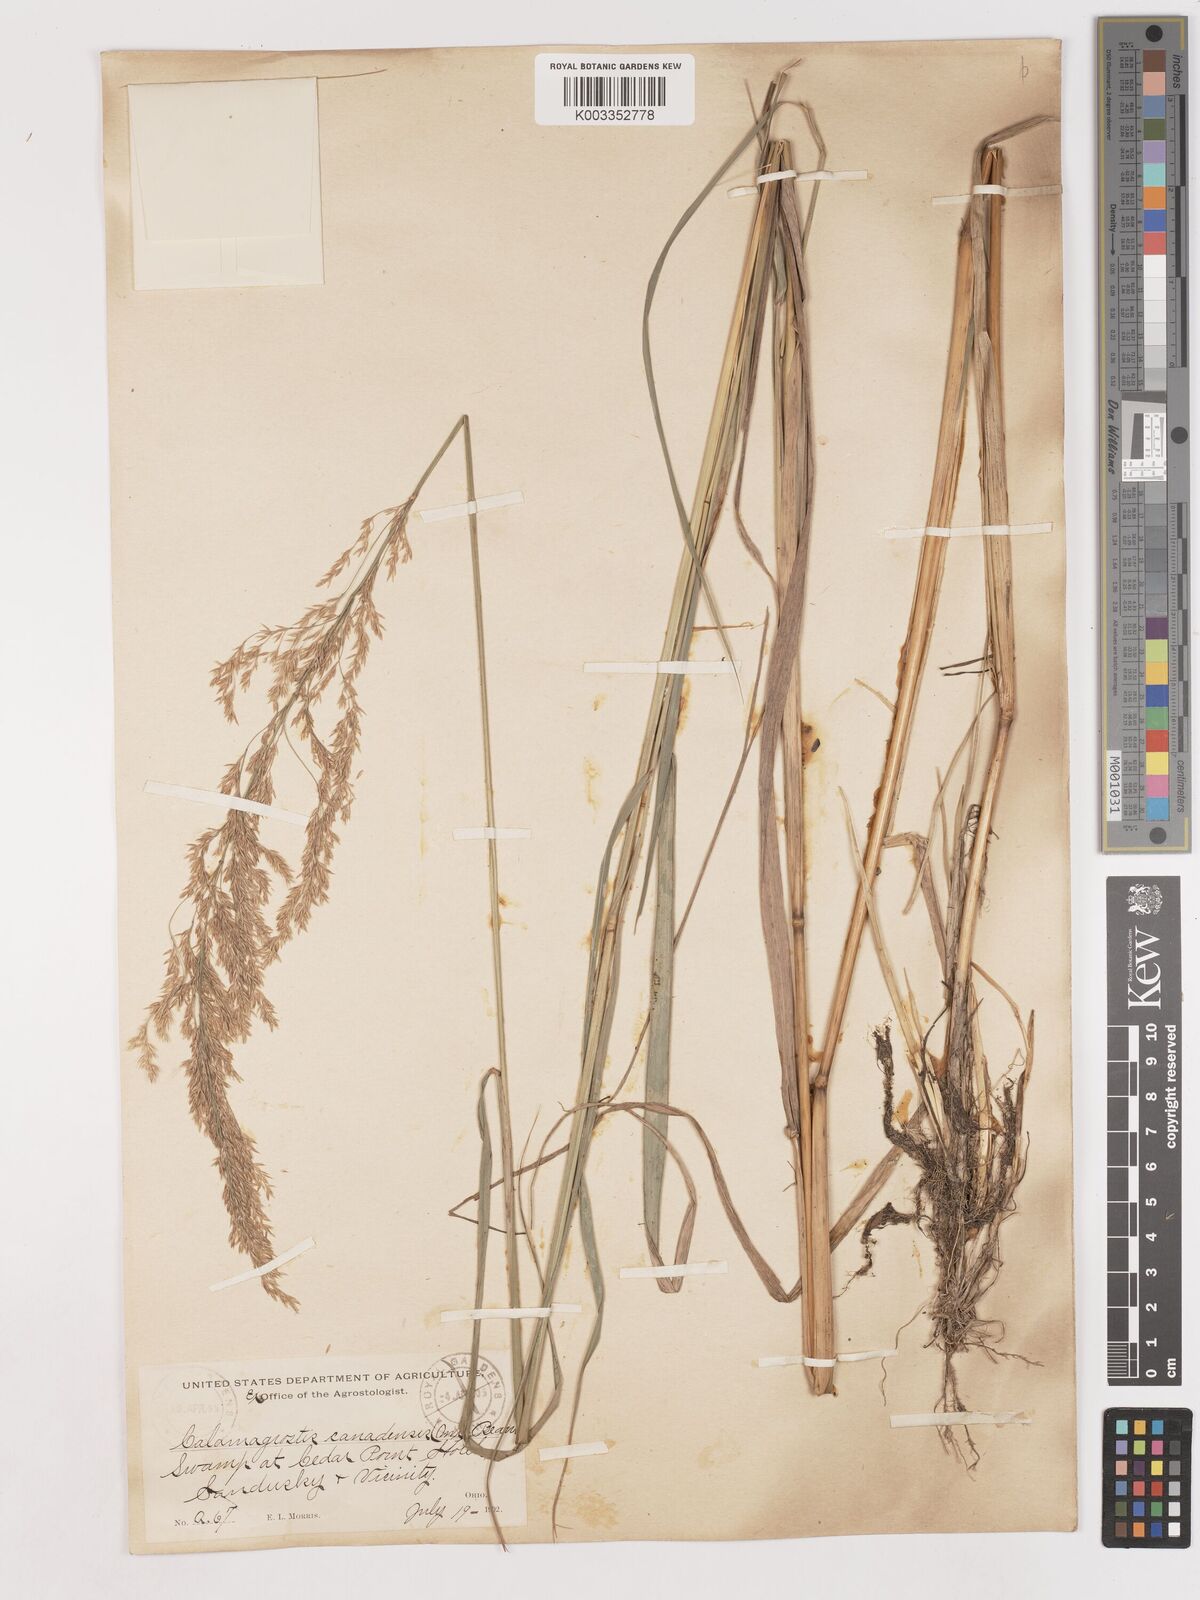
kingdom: Plantae
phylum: Tracheophyta
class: Liliopsida
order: Poales
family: Poaceae
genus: Calamagrostis
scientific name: Calamagrostis canadensis
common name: Canada bluejoint
